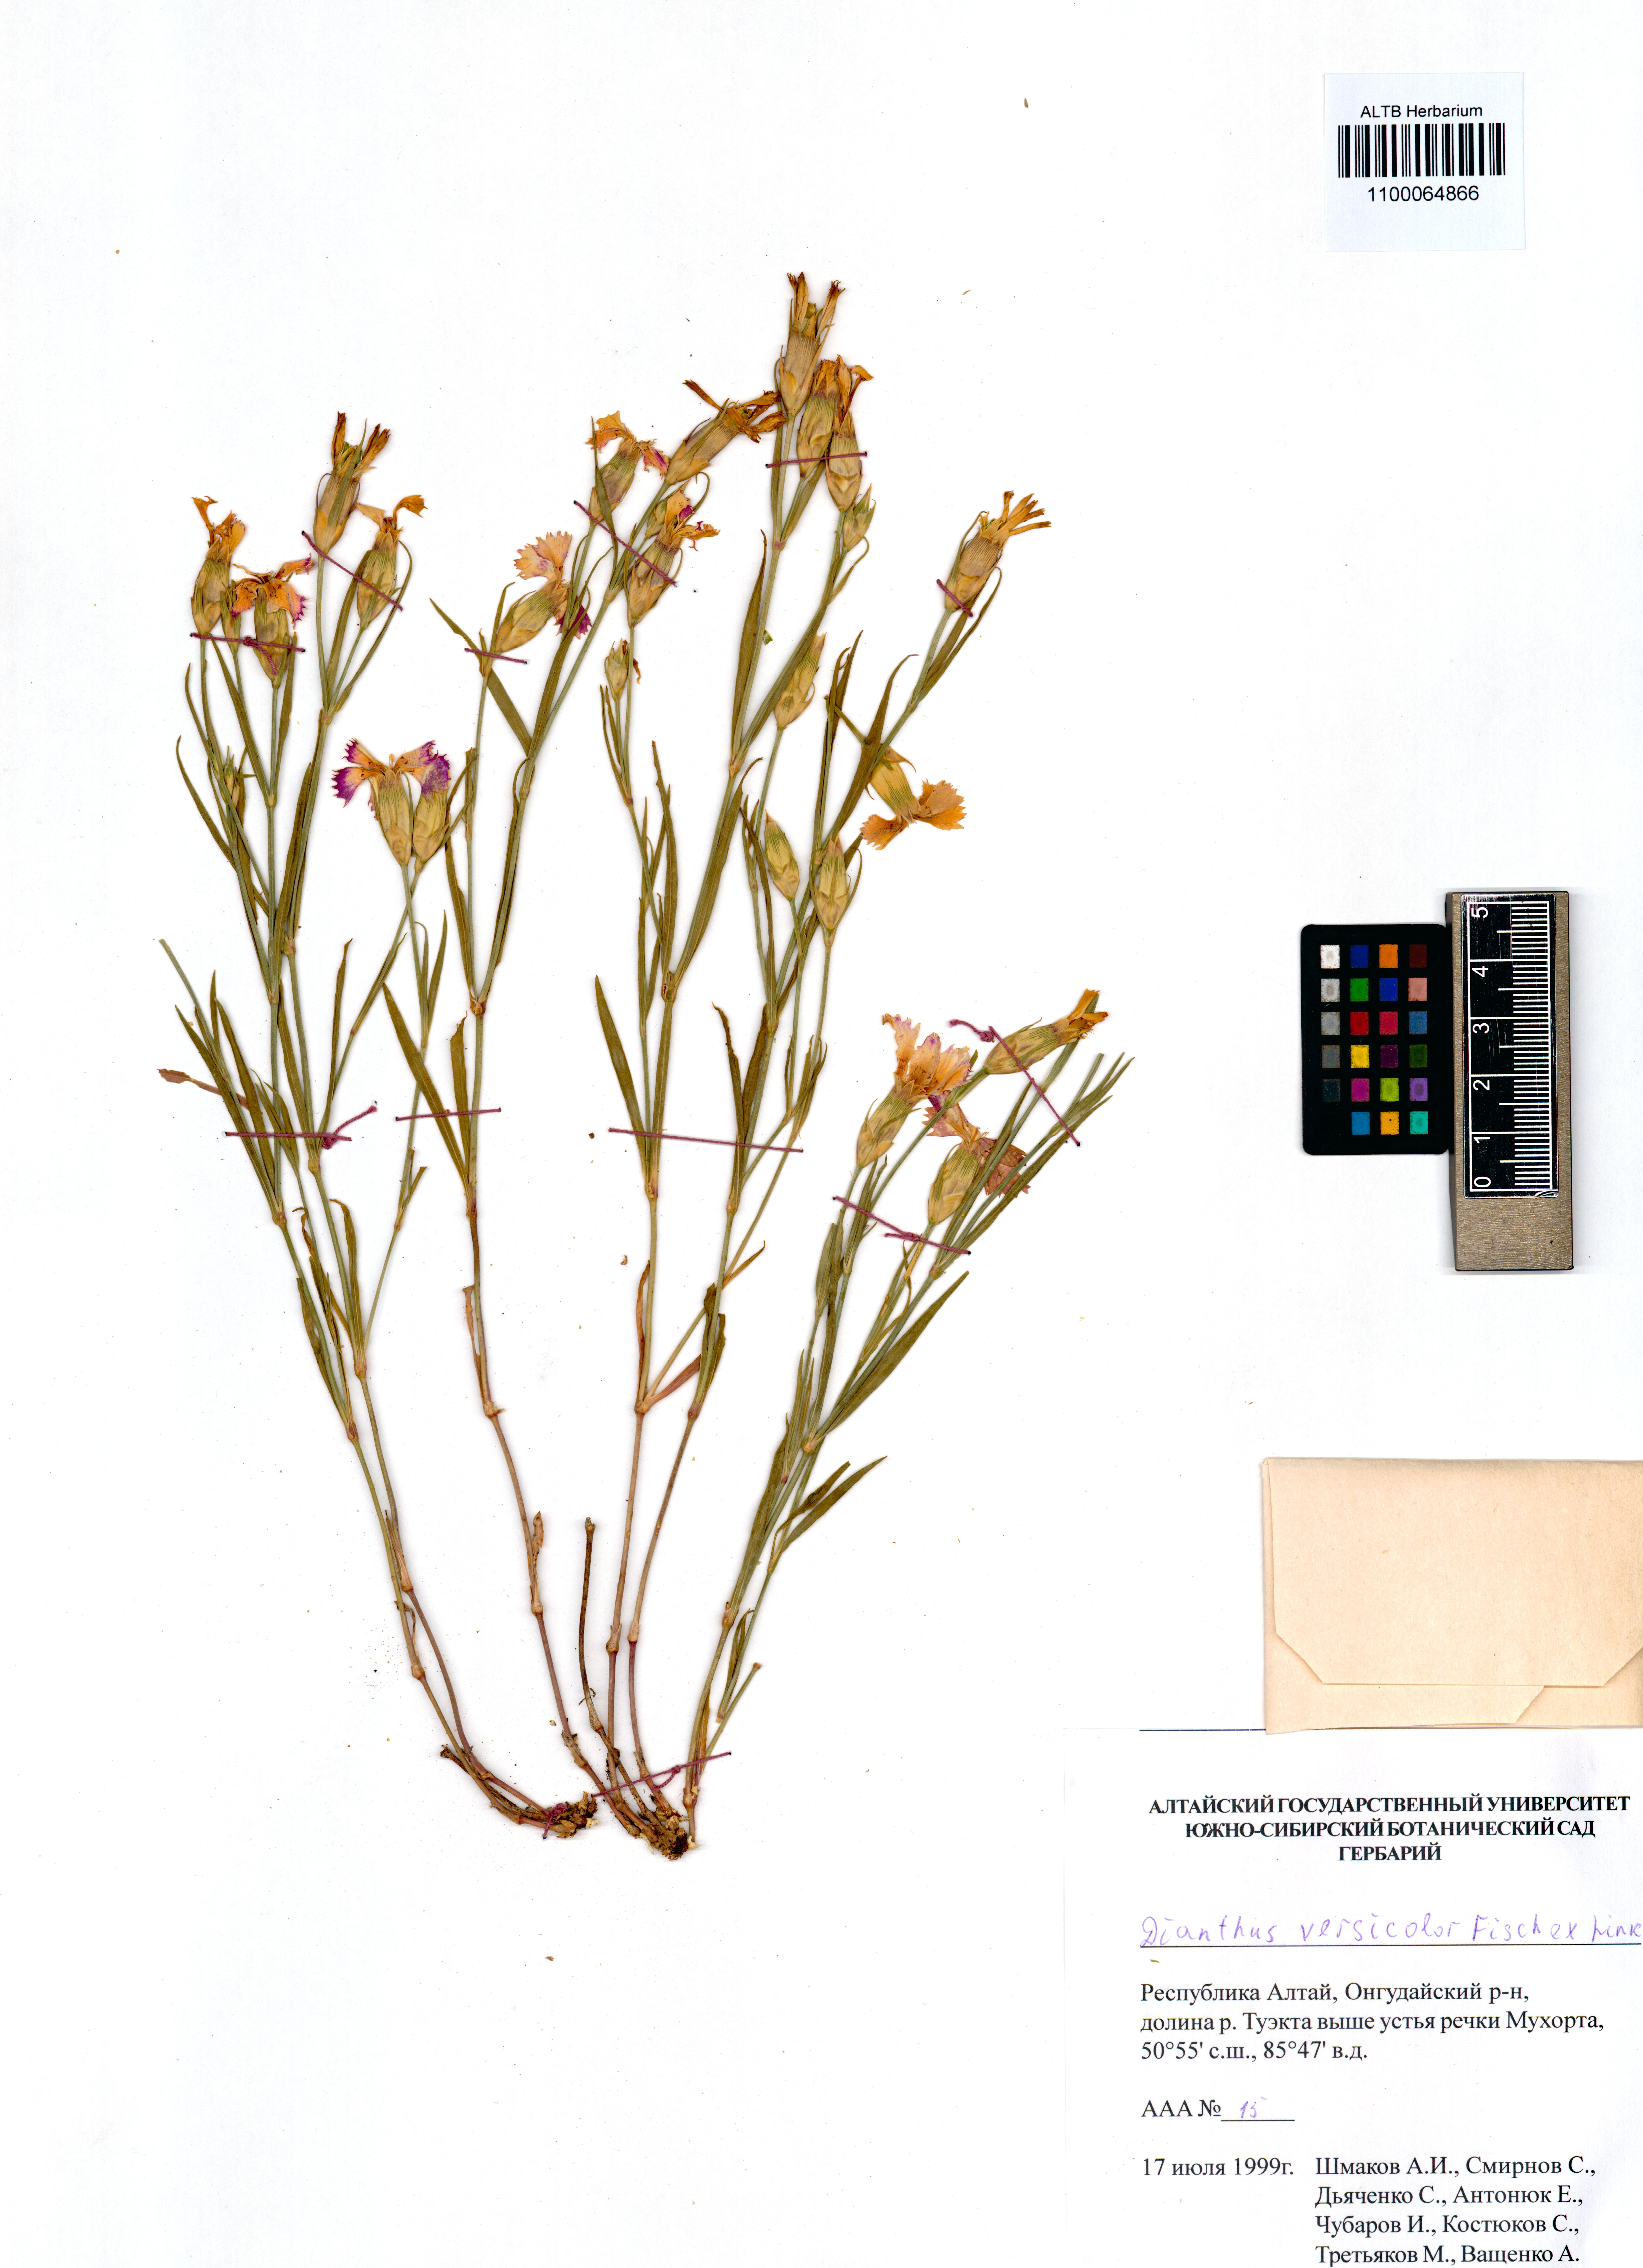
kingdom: Plantae
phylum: Tracheophyta
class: Magnoliopsida
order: Caryophyllales
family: Caryophyllaceae
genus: Dianthus
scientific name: Dianthus chinensis
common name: Rainbow pink
